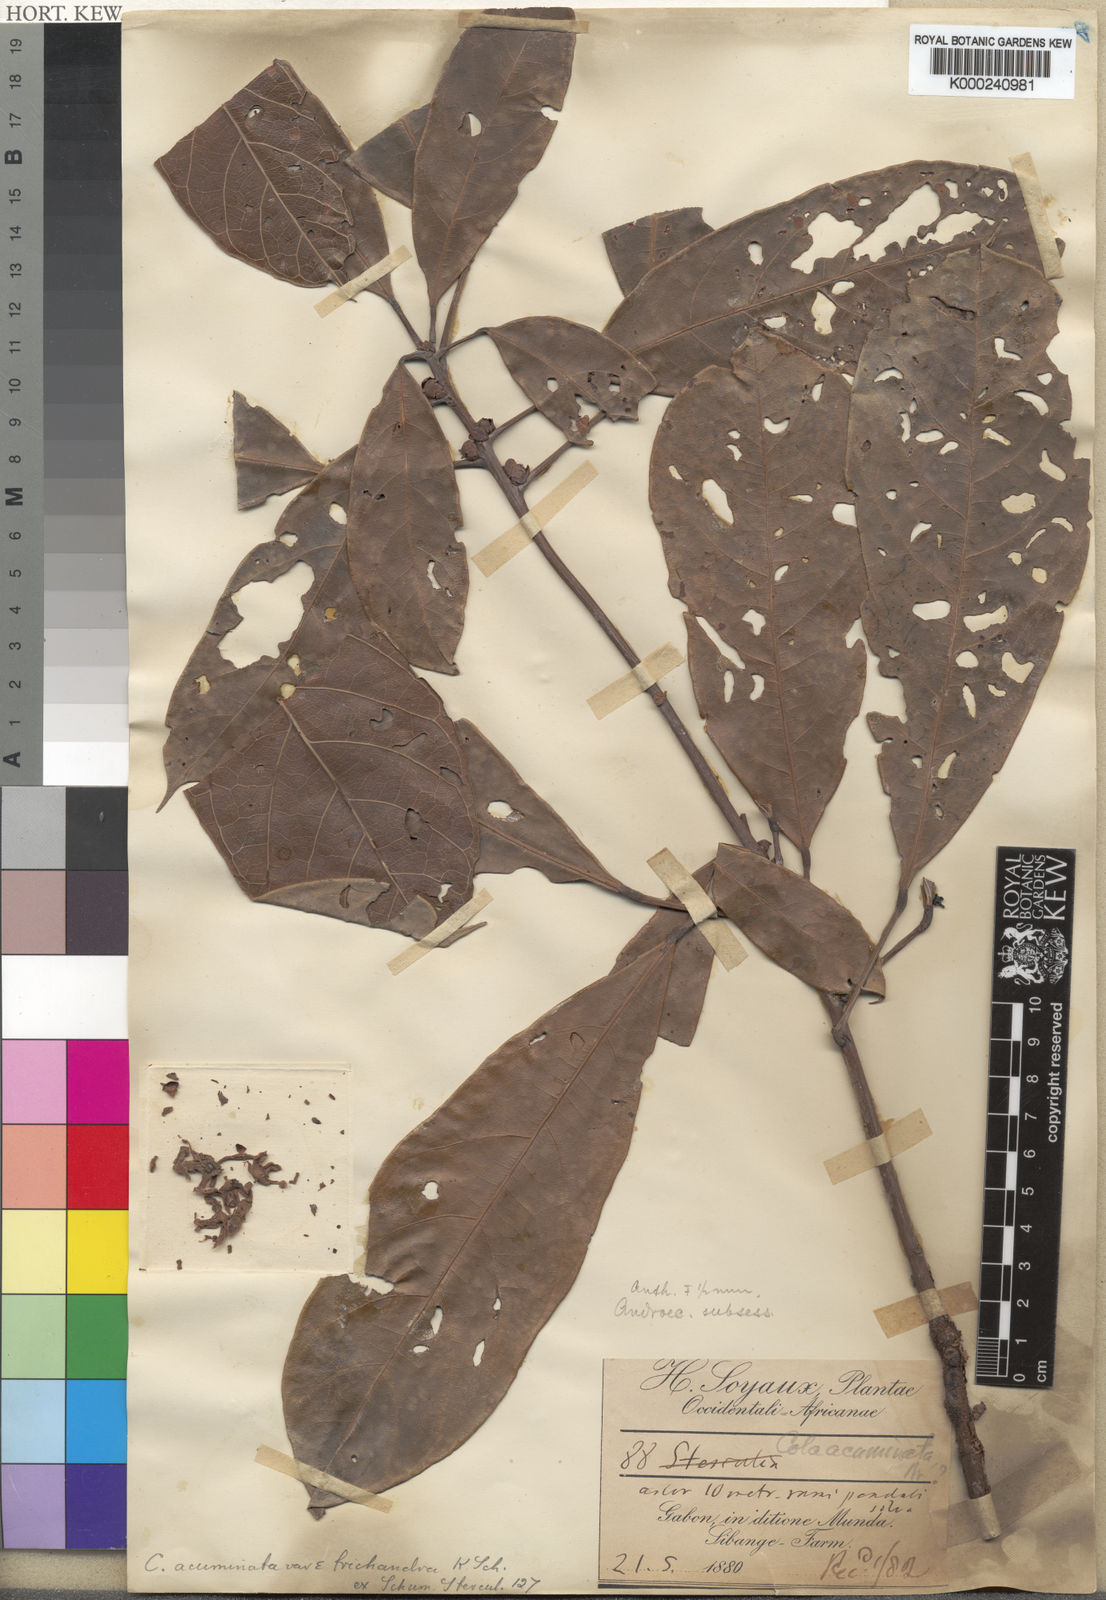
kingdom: Plantae
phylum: Tracheophyta
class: Magnoliopsida
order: Malvales
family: Malvaceae
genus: Cola
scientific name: Cola acuminata
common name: True kola
